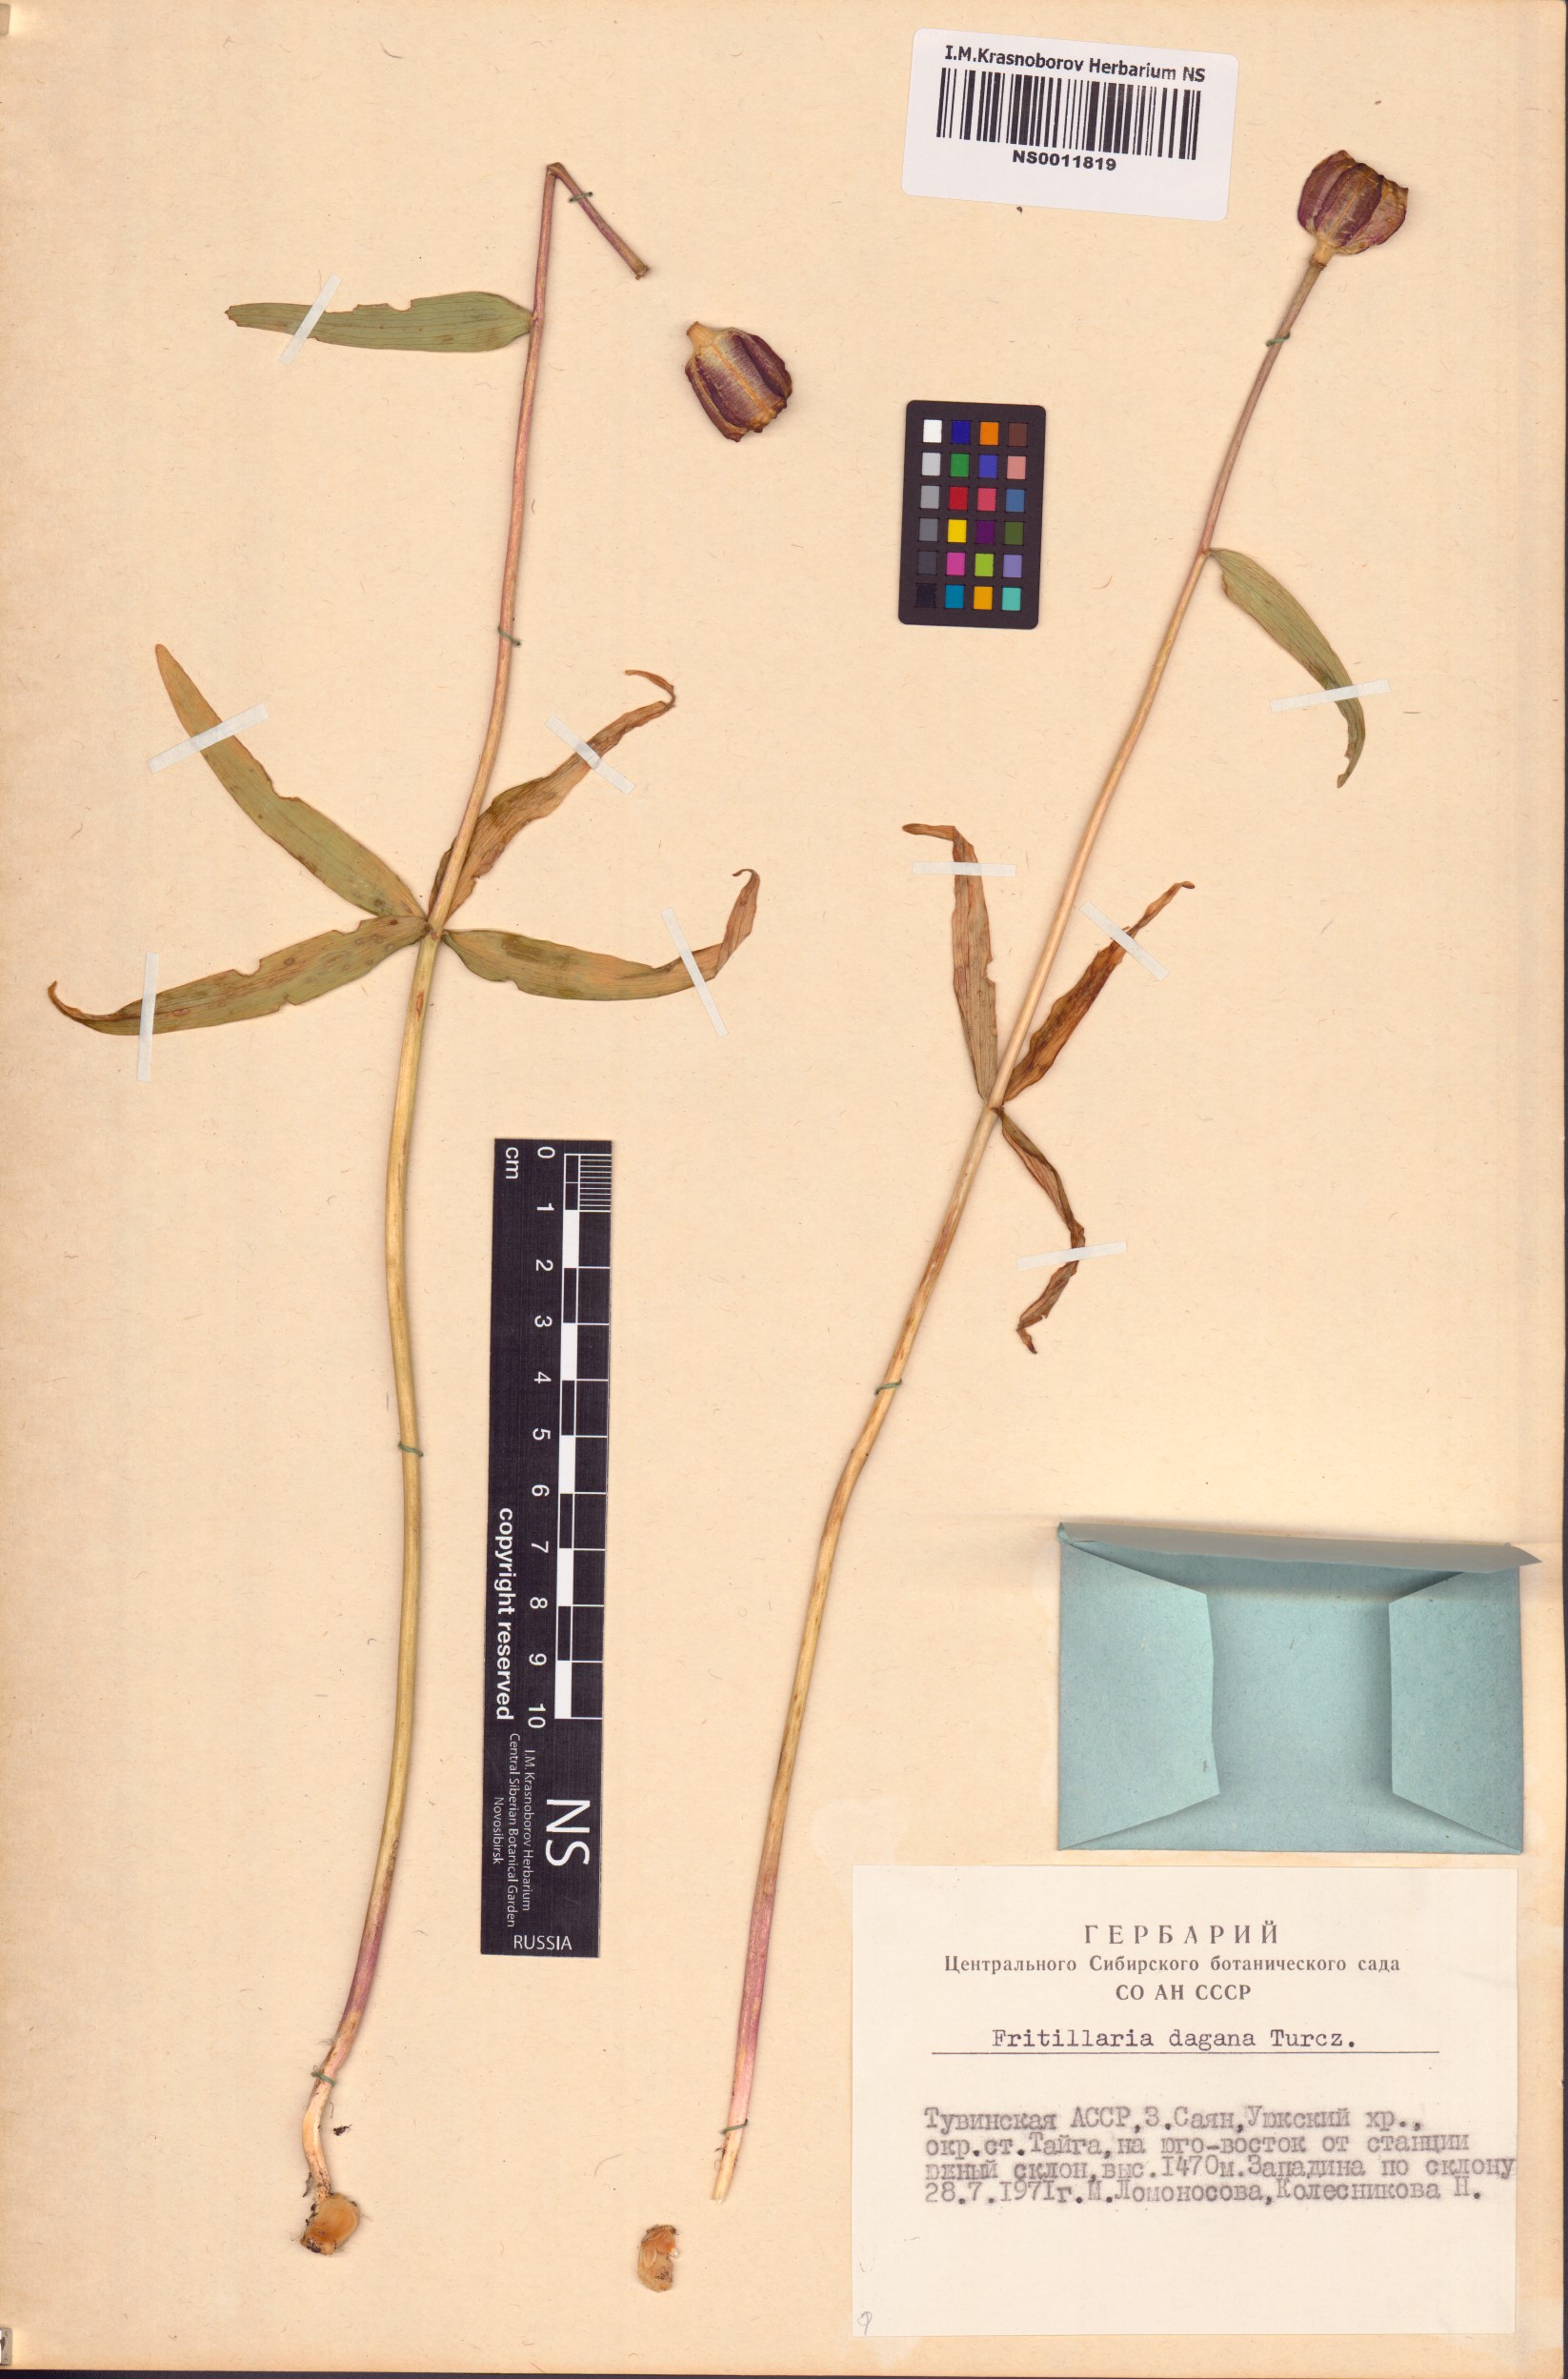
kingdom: Plantae
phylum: Tracheophyta
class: Liliopsida
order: Liliales
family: Liliaceae
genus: Fritillaria
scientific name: Fritillaria dagana
